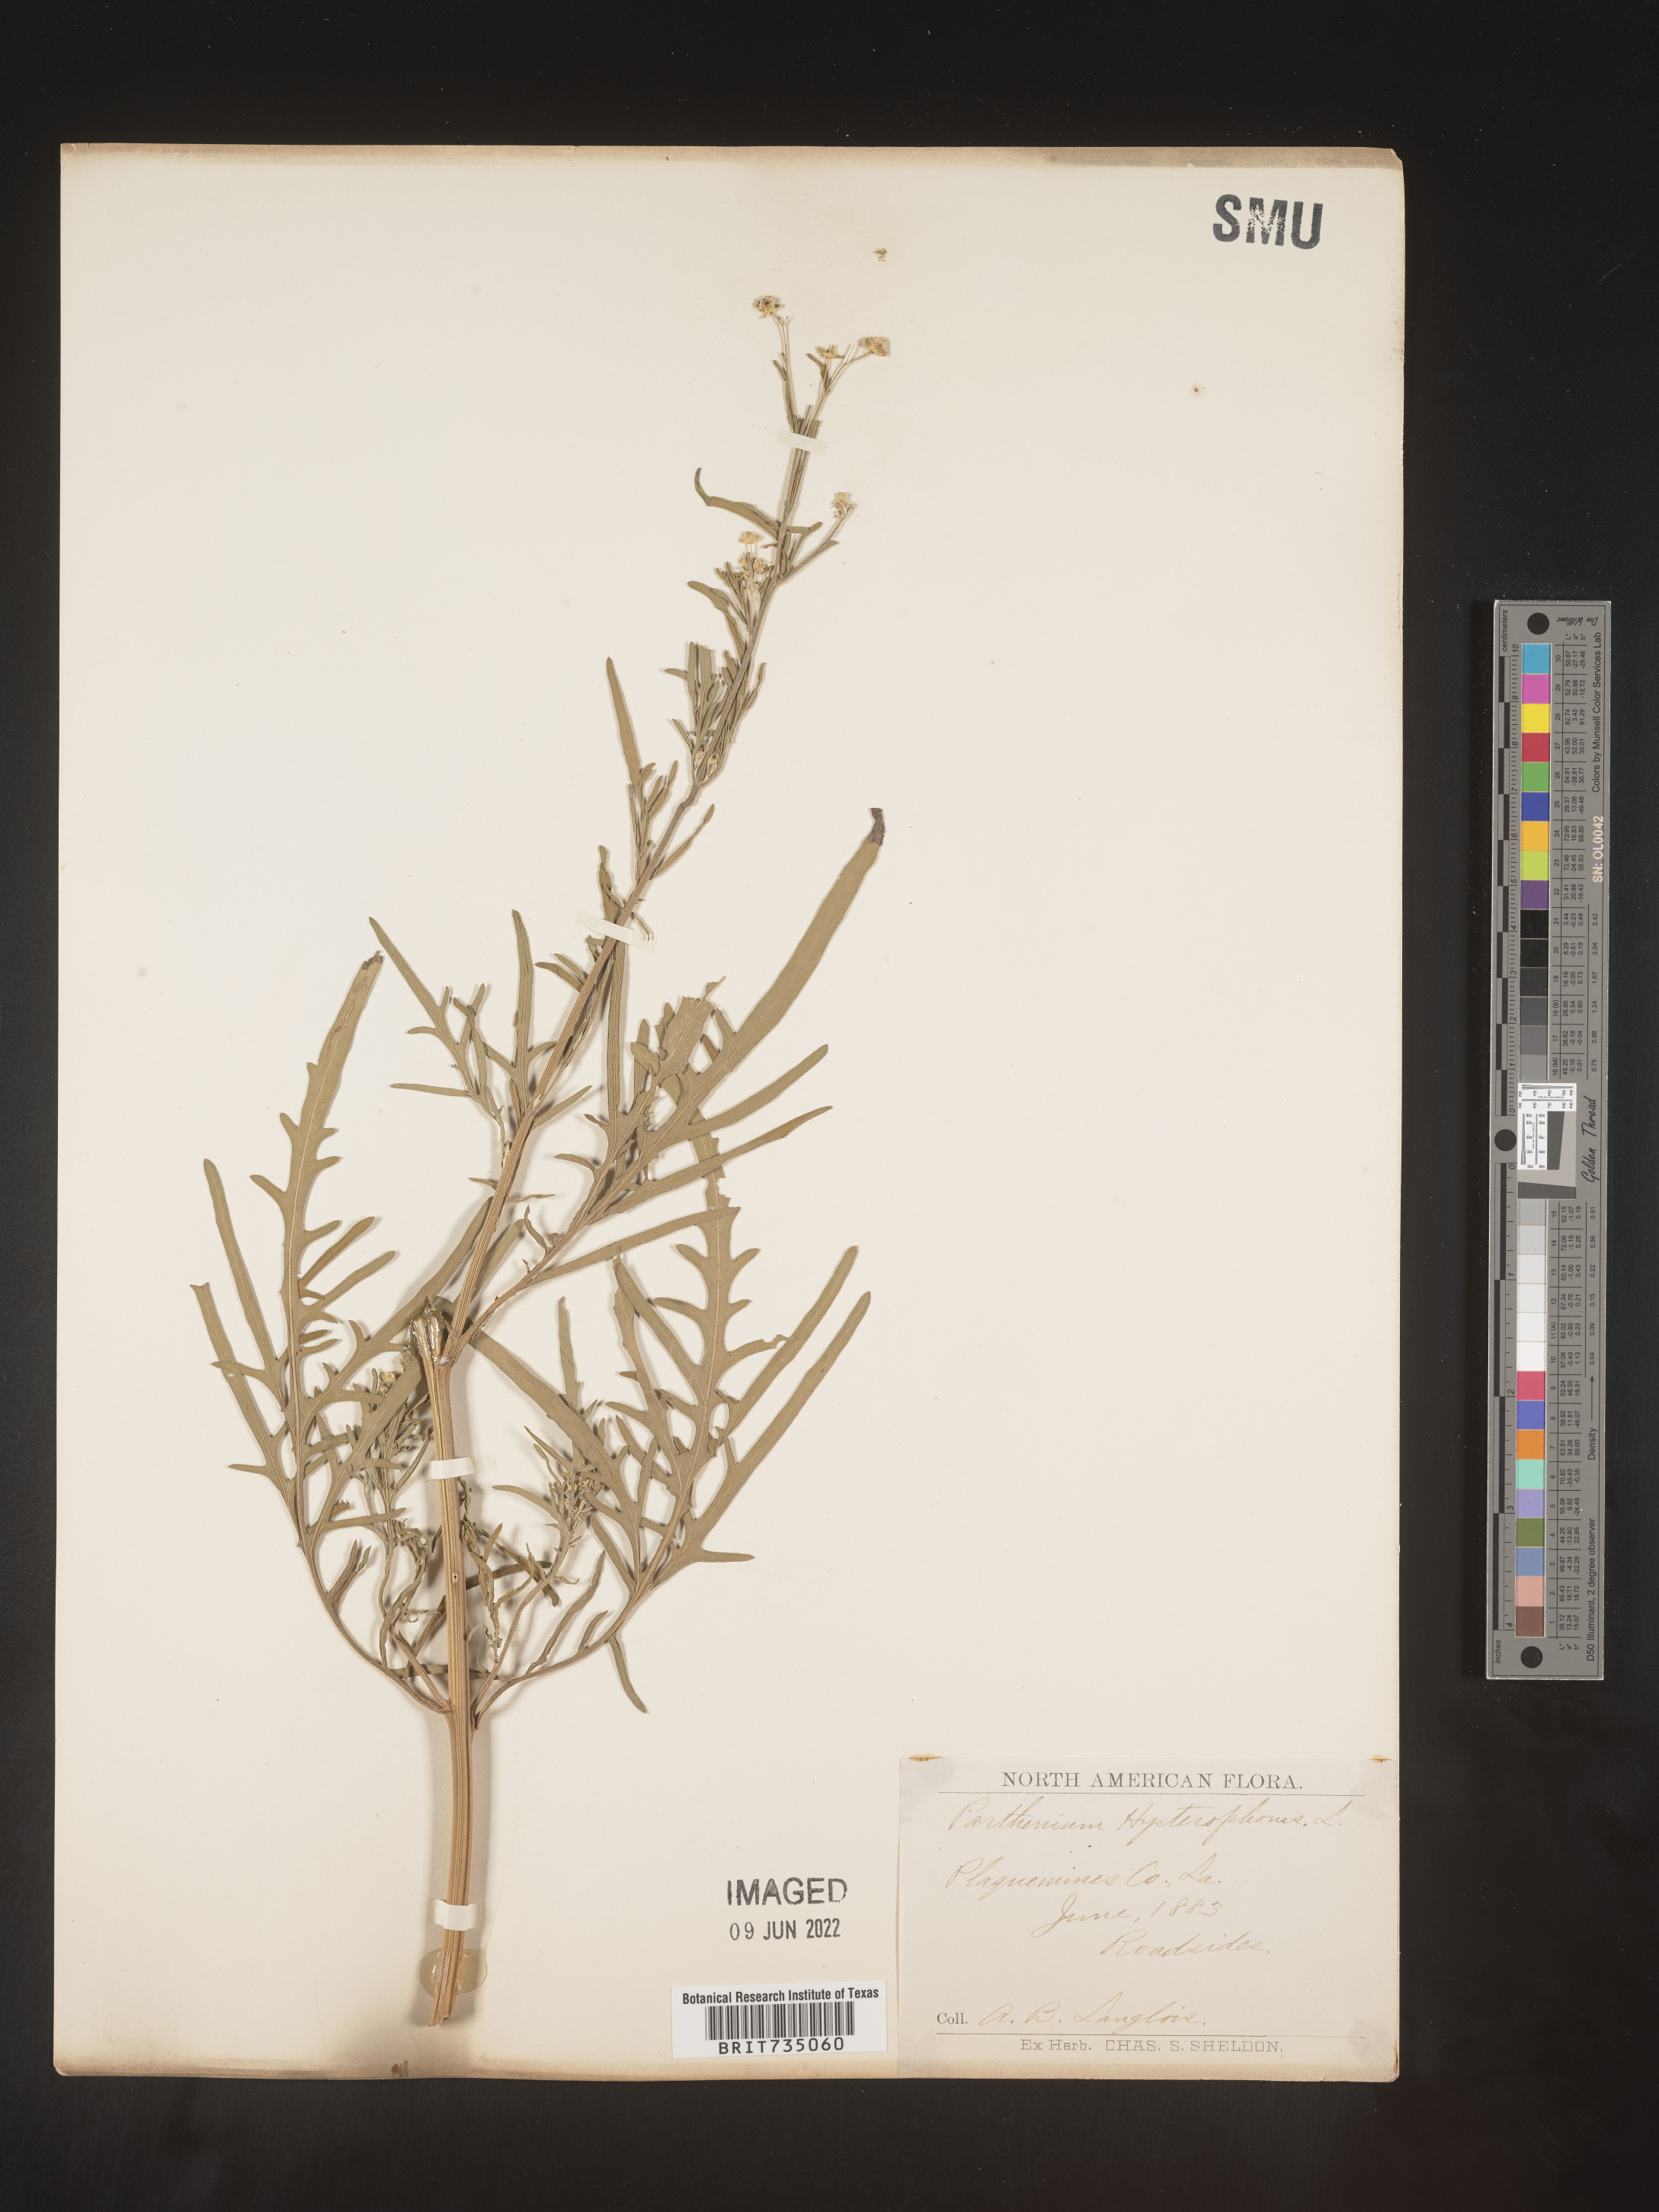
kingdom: Plantae
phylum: Tracheophyta
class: Magnoliopsida
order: Asterales
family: Asteraceae
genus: Parthenium
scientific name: Parthenium hysterophorus
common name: Santa maria feverfew
